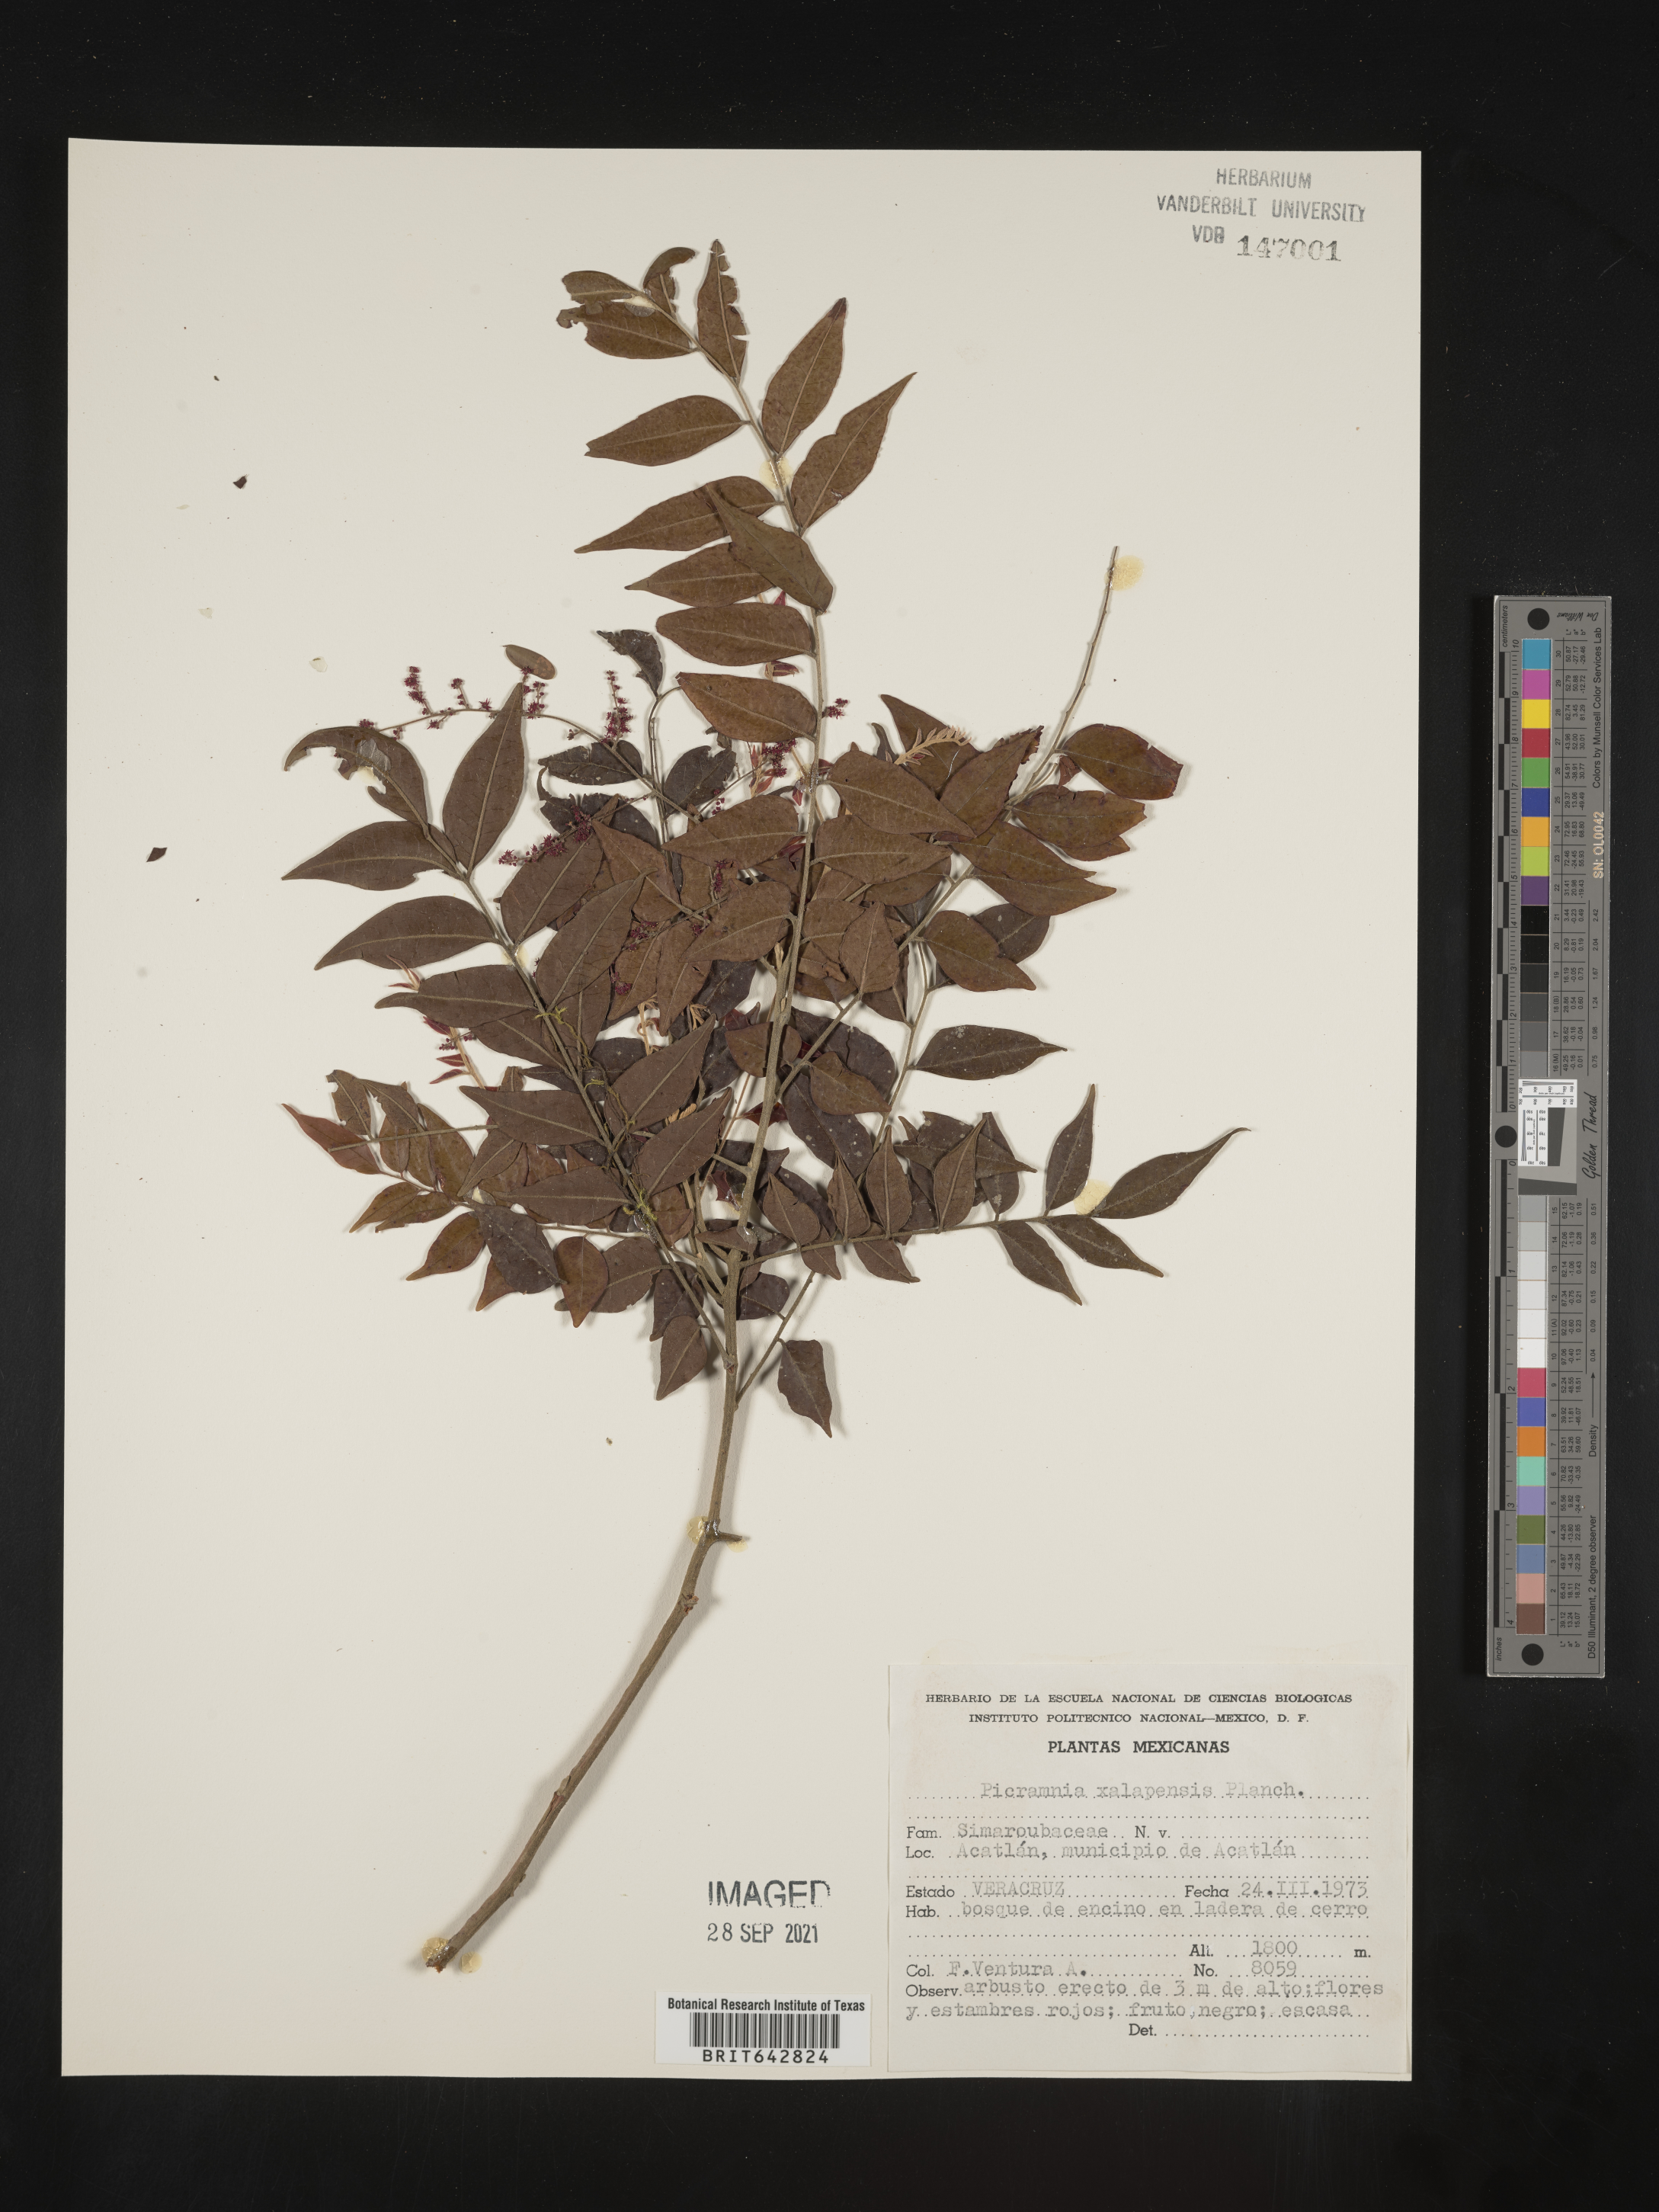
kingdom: Plantae
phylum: Tracheophyta
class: Magnoliopsida
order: Picramniales
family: Picramniaceae
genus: Picramnia
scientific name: Picramnia
